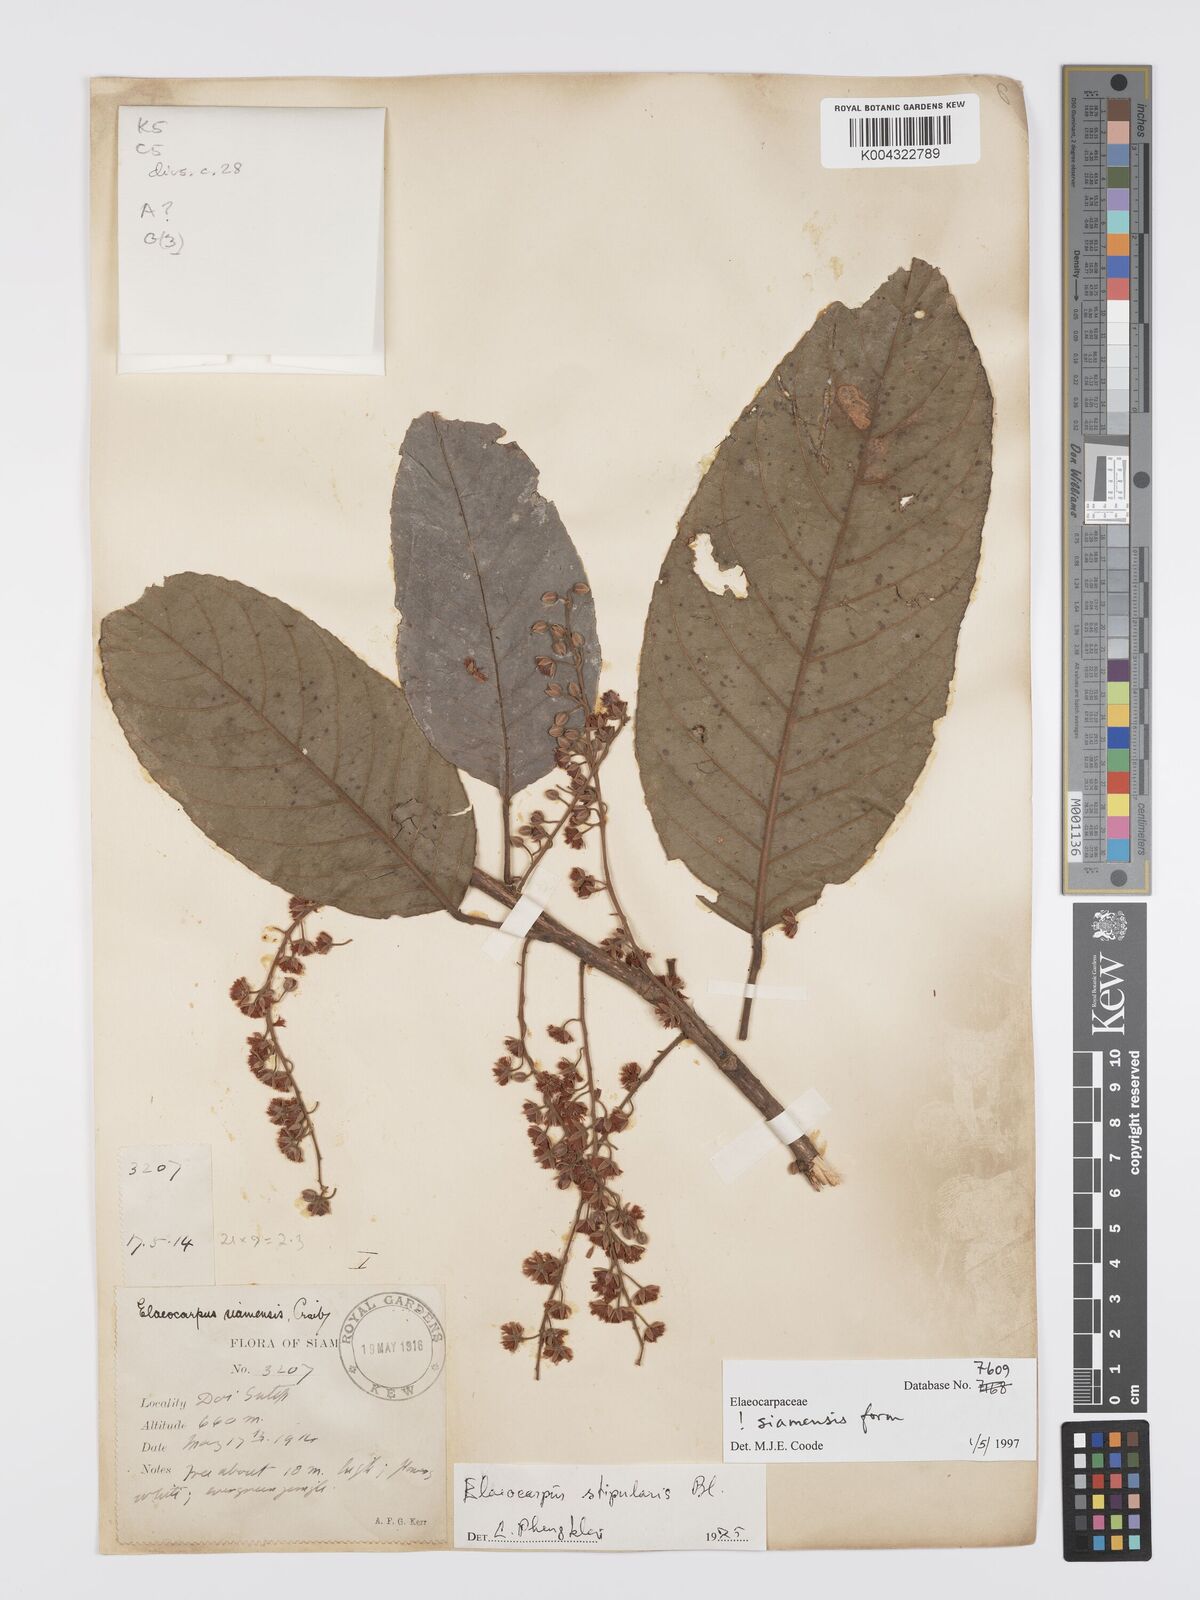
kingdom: Plantae
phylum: Tracheophyta
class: Magnoliopsida
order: Oxalidales
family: Elaeocarpaceae
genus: Elaeocarpus
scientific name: Elaeocarpus stipularis
